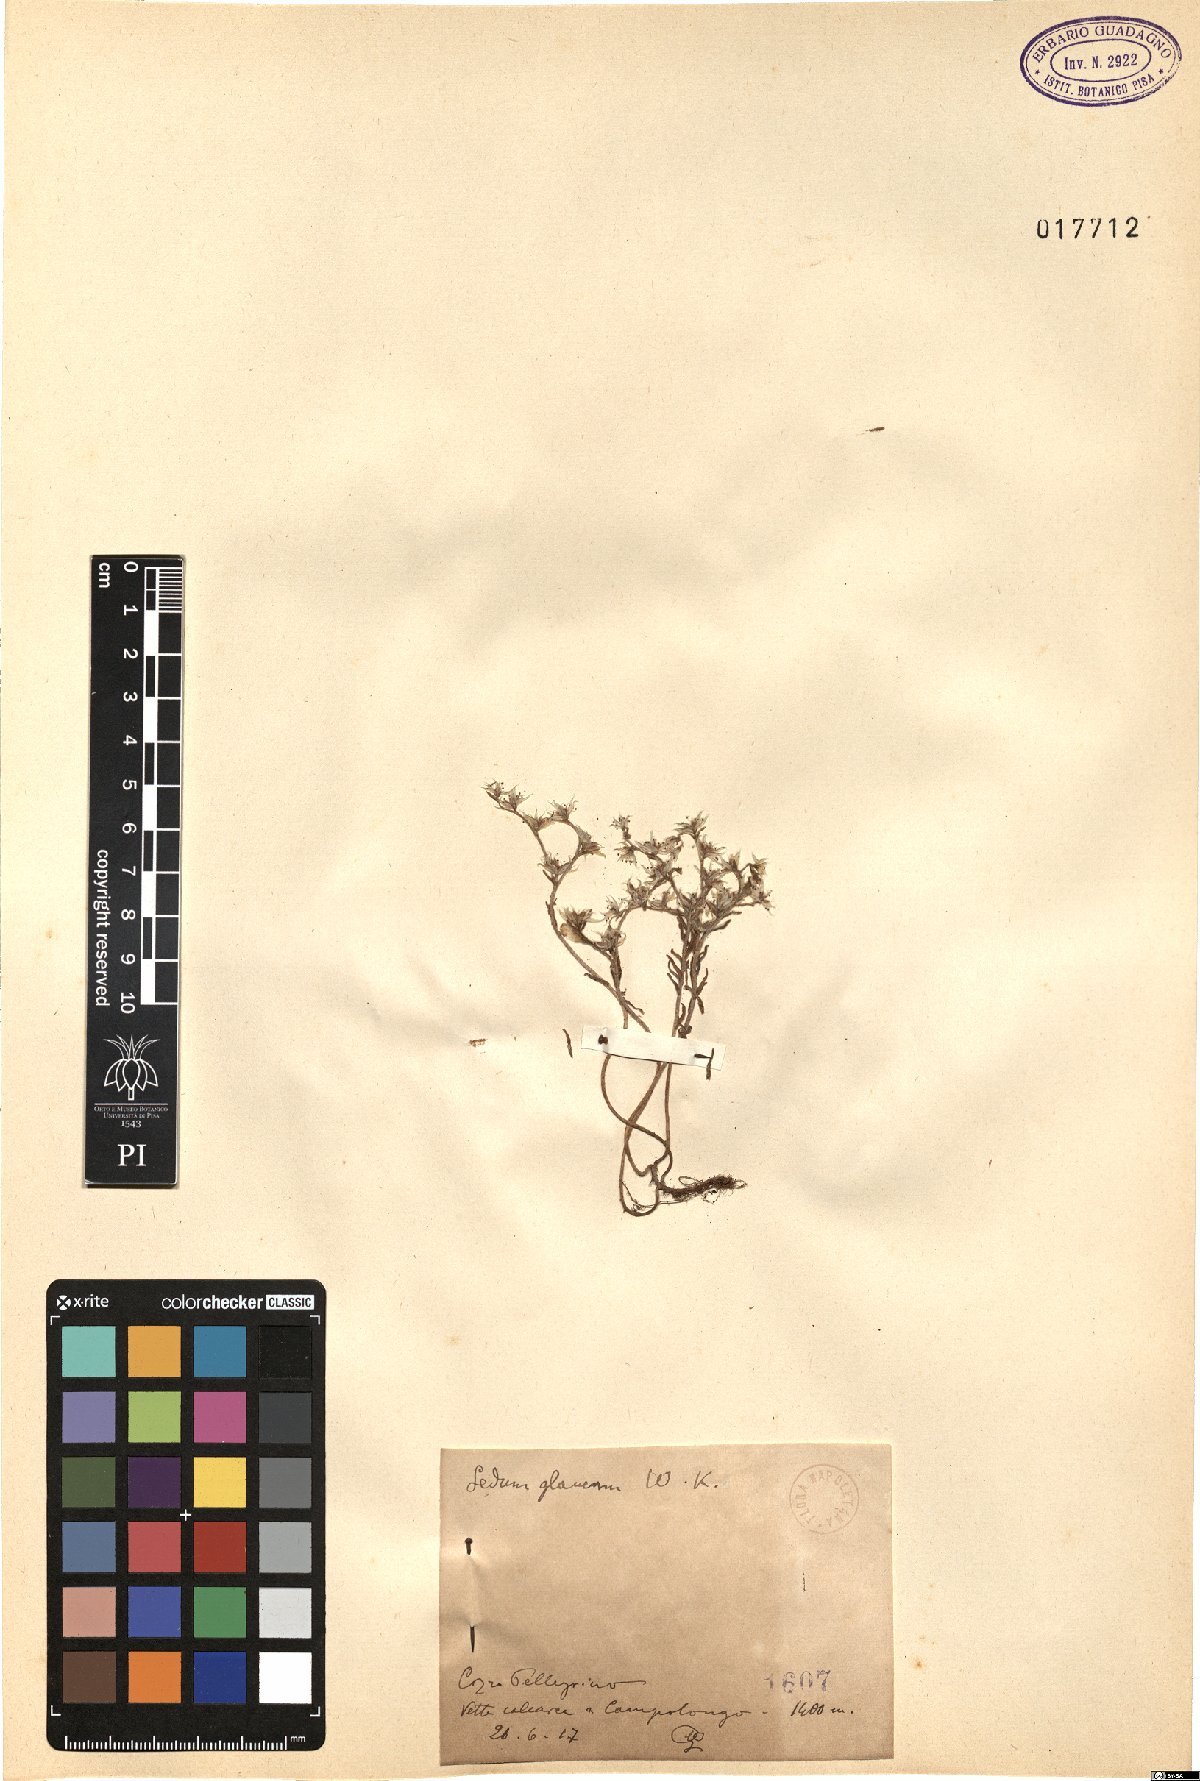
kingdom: Plantae
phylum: Tracheophyta
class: Magnoliopsida
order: Saxifragales
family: Crassulaceae
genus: Sedum
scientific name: Sedum hispanicum
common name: Spanish stonecrop
